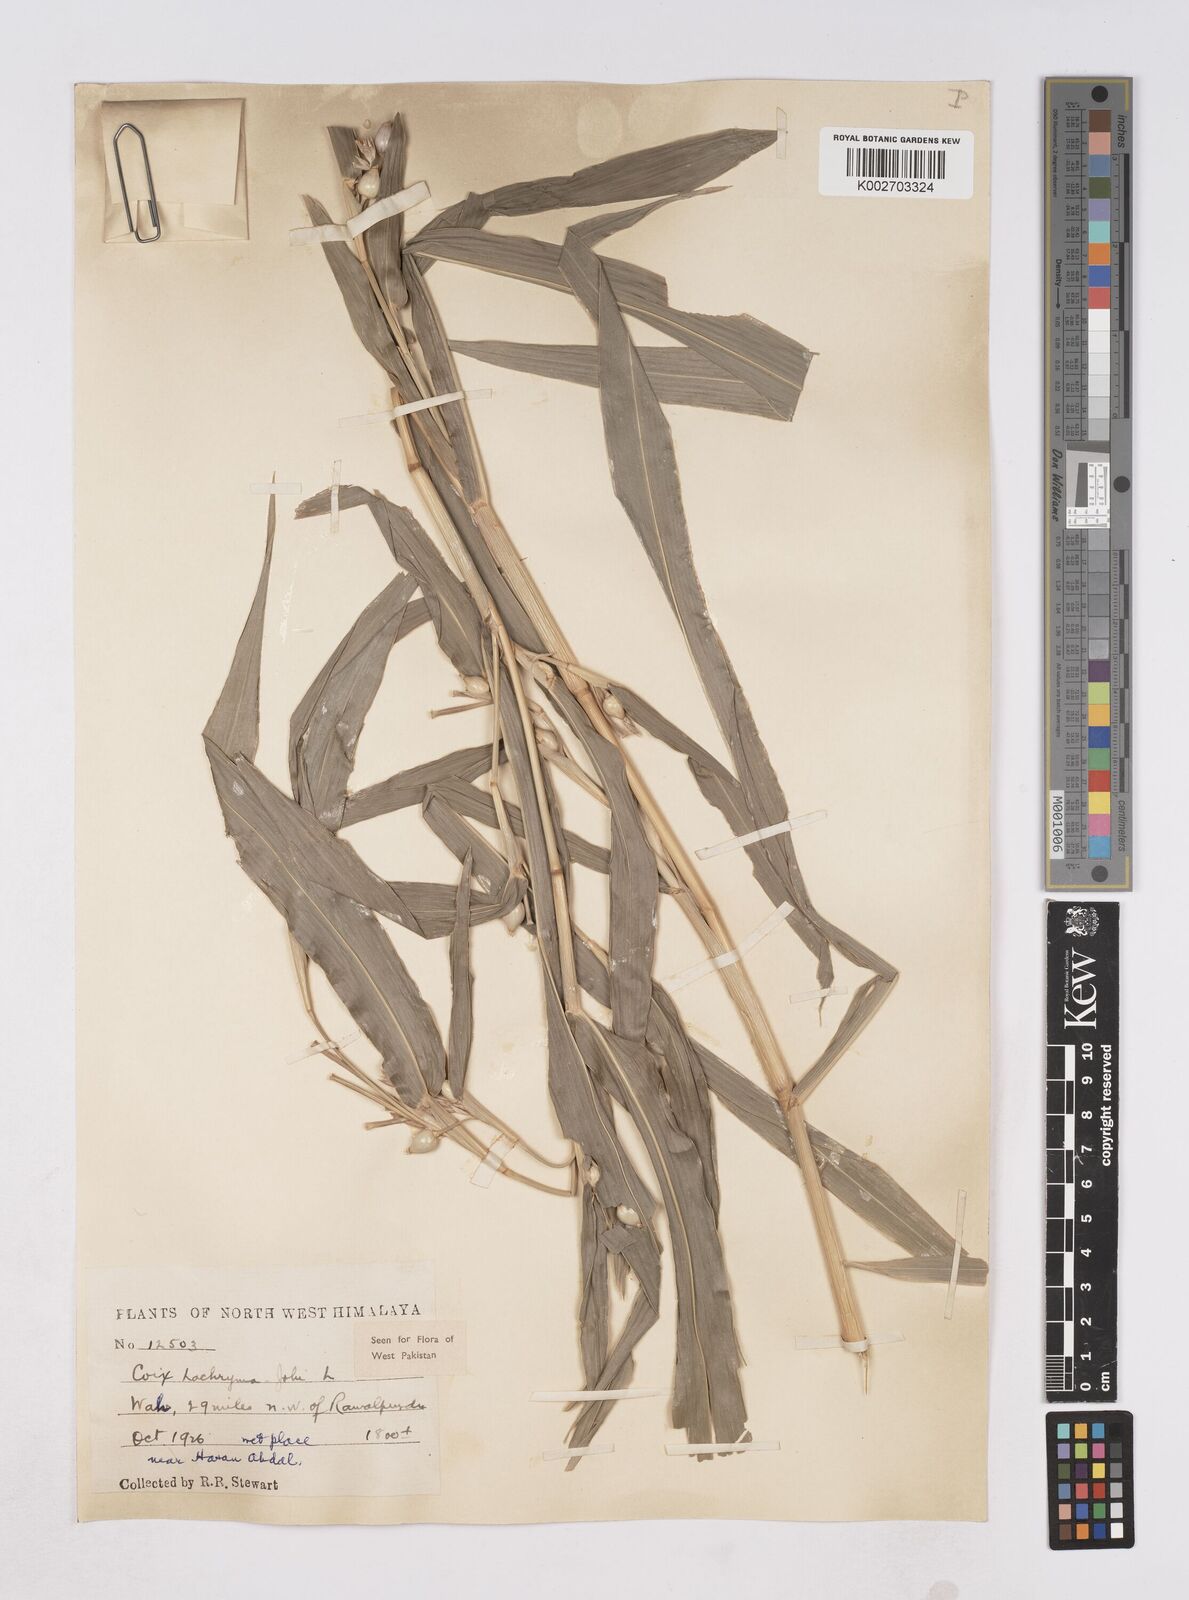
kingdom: Plantae
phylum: Tracheophyta
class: Liliopsida
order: Poales
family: Poaceae
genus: Coix
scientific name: Coix lacryma-jobi
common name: Job's tears
